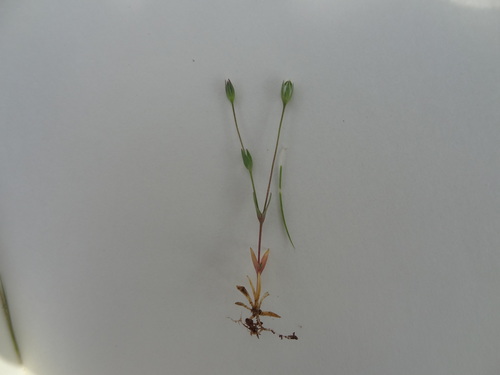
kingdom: Plantae
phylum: Tracheophyta
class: Magnoliopsida
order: Caryophyllales
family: Caryophyllaceae
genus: Moenchia
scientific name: Moenchia erecta
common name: Upright chickweed
